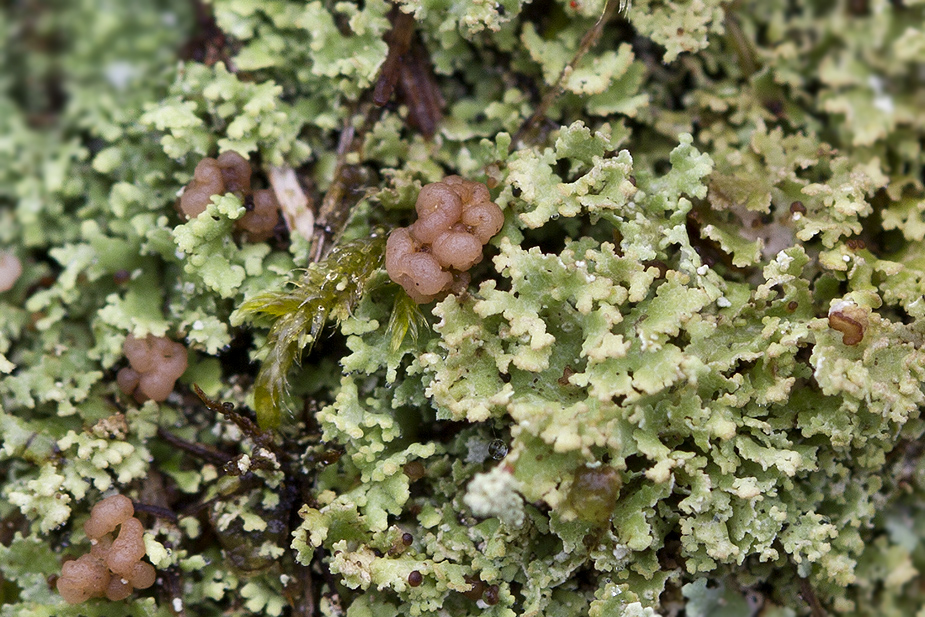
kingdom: Fungi
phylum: Ascomycota
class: Lecanoromycetes
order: Lecanorales
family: Cladoniaceae
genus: Cladonia
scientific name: Cladonia caespiticia
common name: tæppe-bægerlav
